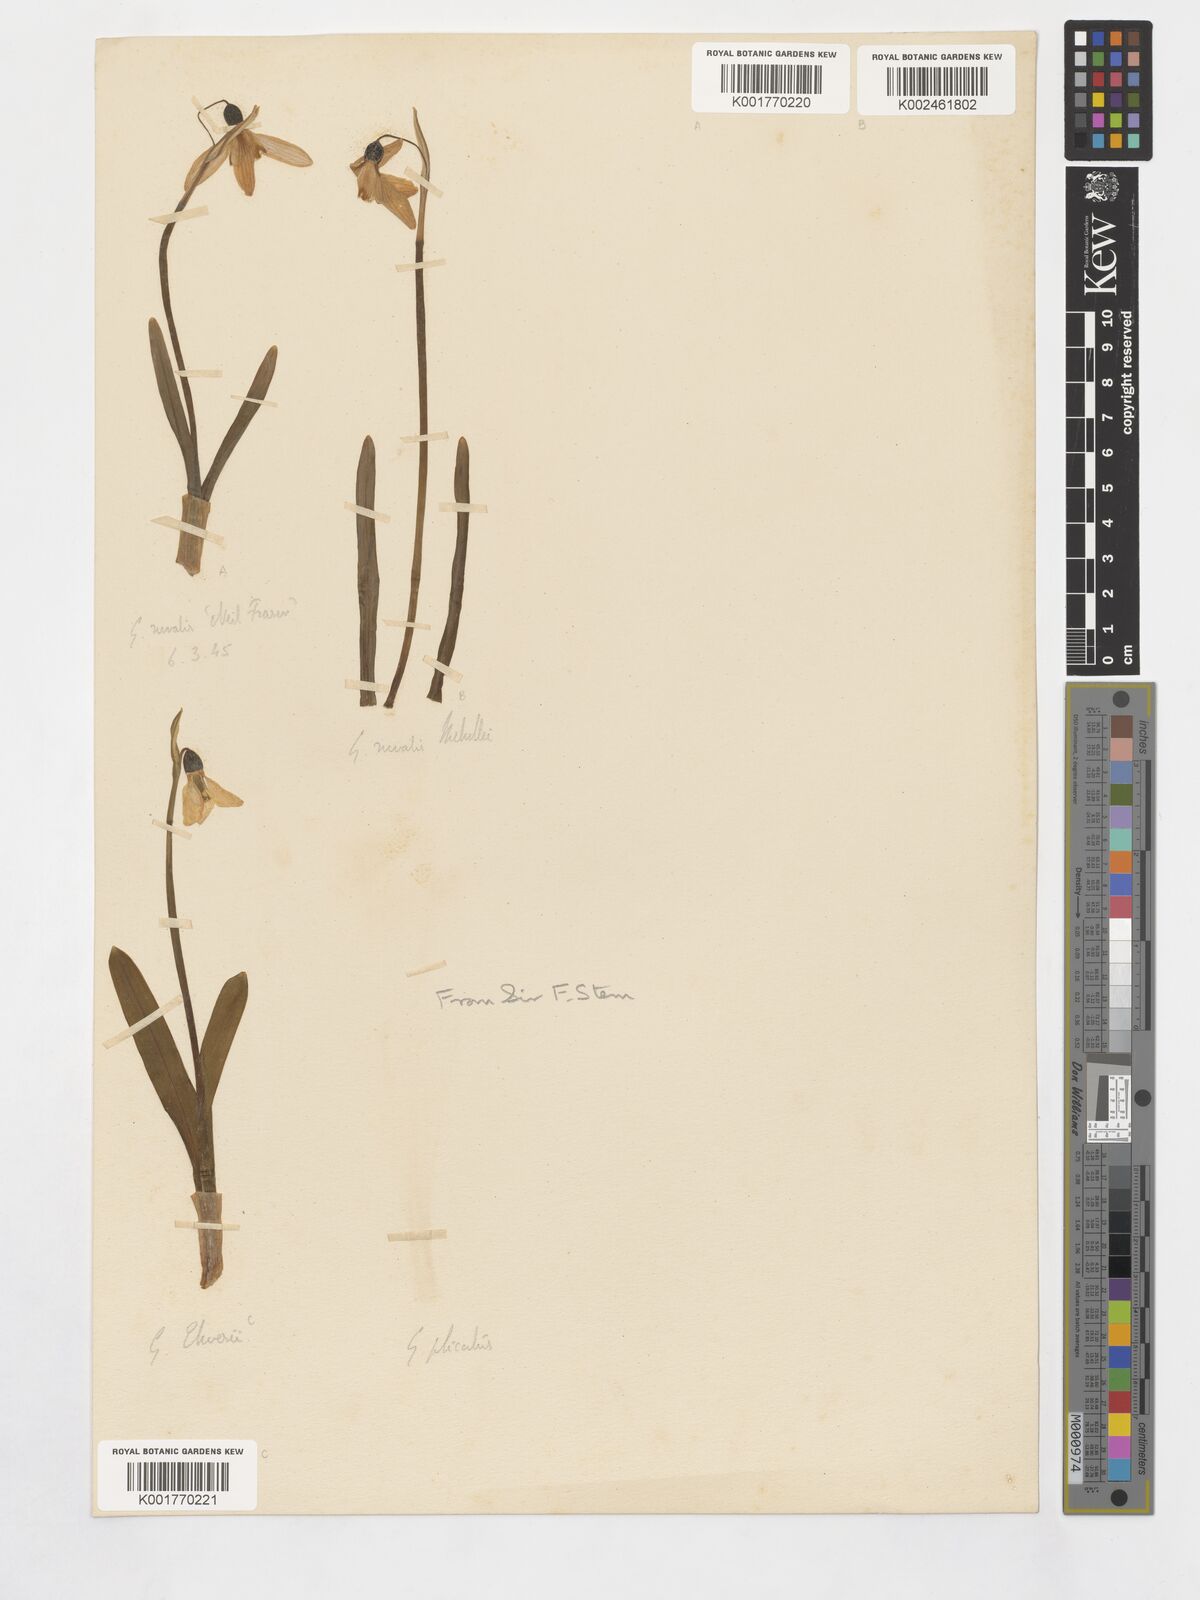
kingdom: Plantae
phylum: Tracheophyta
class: Liliopsida
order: Asparagales
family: Amaryllidaceae
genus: Galanthus
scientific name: Galanthus elwesii
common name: Greater snowdrop
